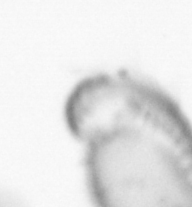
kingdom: Animalia
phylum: Annelida
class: Polychaeta
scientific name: Polychaeta
